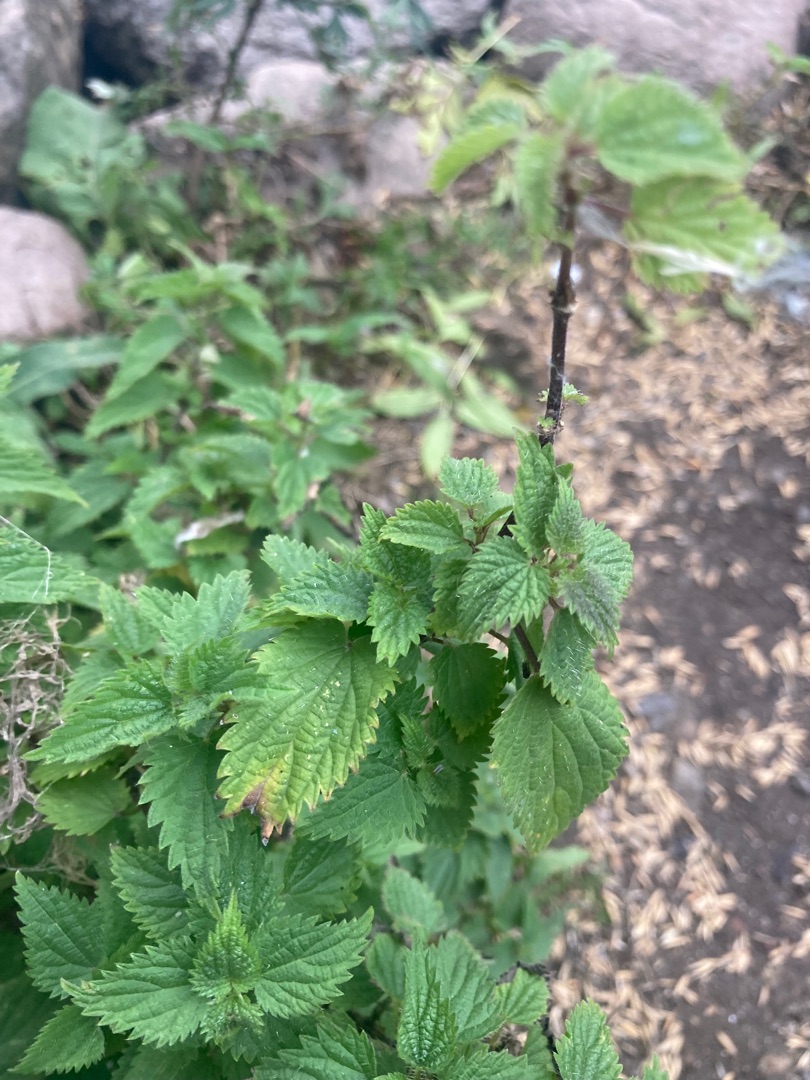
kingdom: Plantae
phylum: Tracheophyta
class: Magnoliopsida
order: Rosales
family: Urticaceae
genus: Urtica
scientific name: Urtica dioica
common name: Stor nælde
